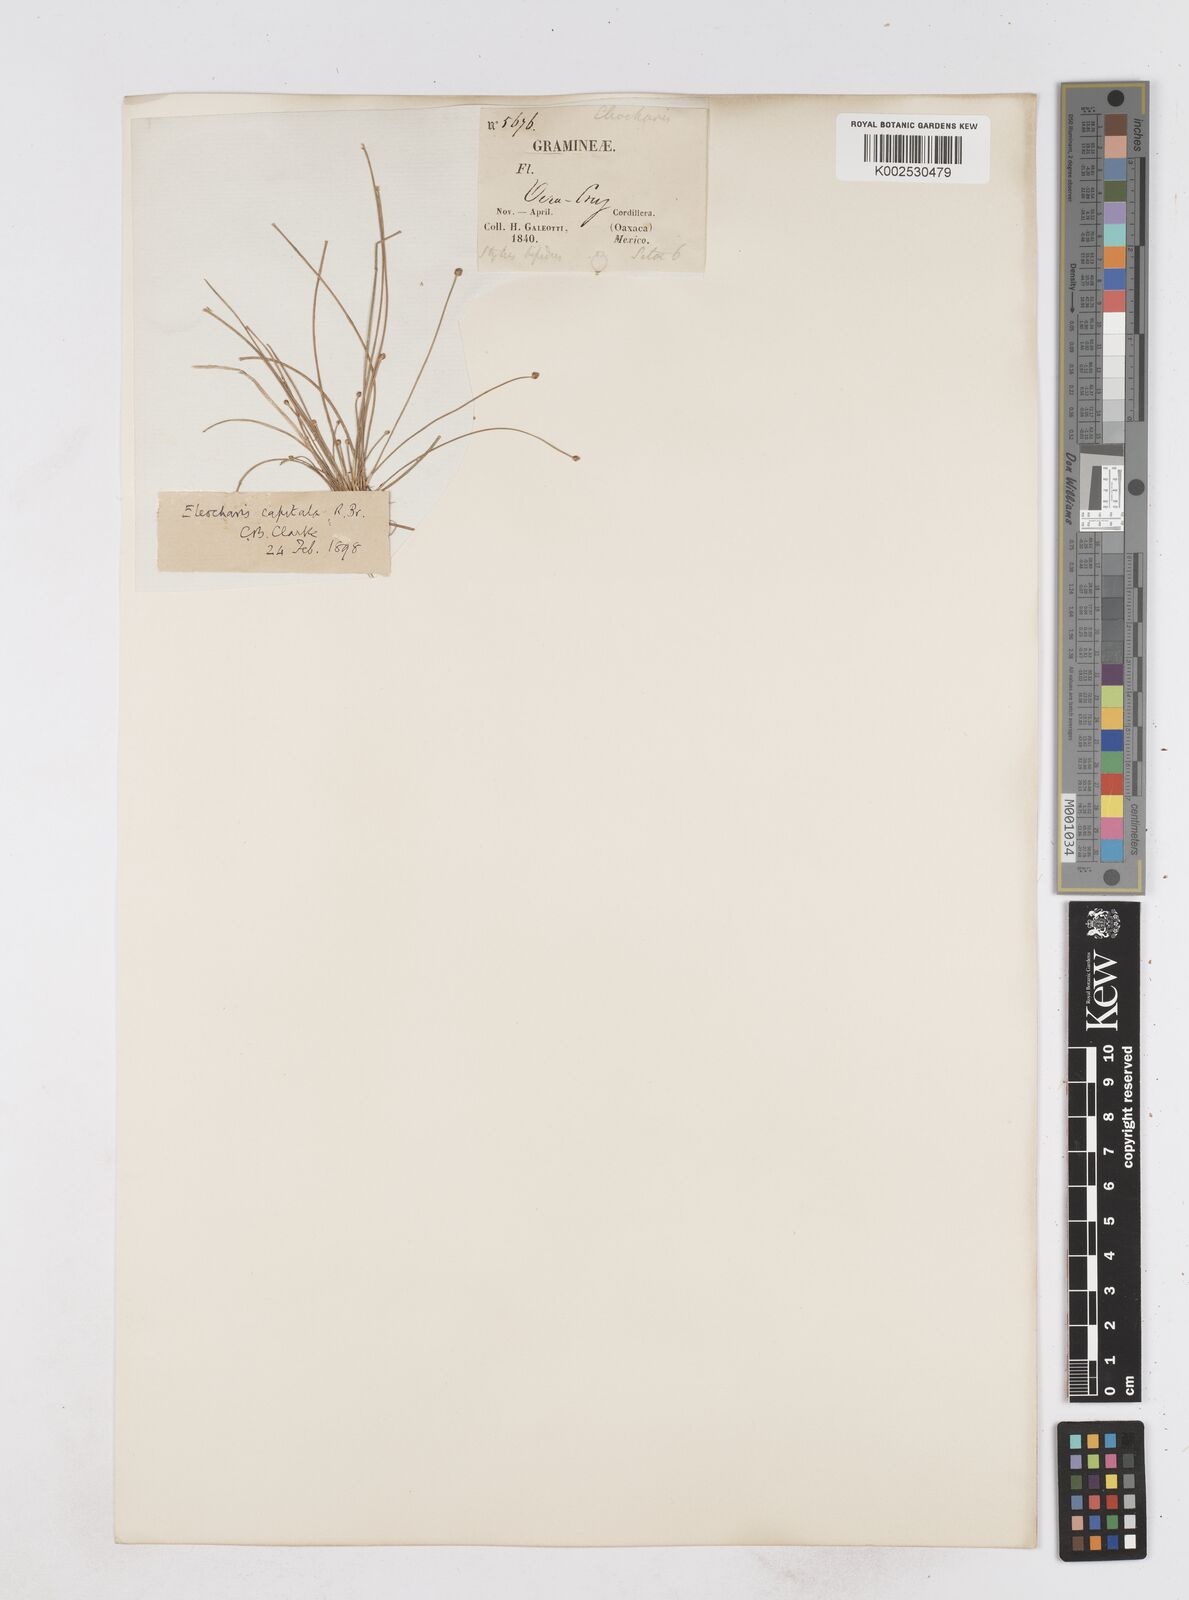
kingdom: Plantae
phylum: Tracheophyta
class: Liliopsida
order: Poales
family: Cyperaceae
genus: Eleocharis
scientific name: Eleocharis geniculata
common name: Canada spikesedge
